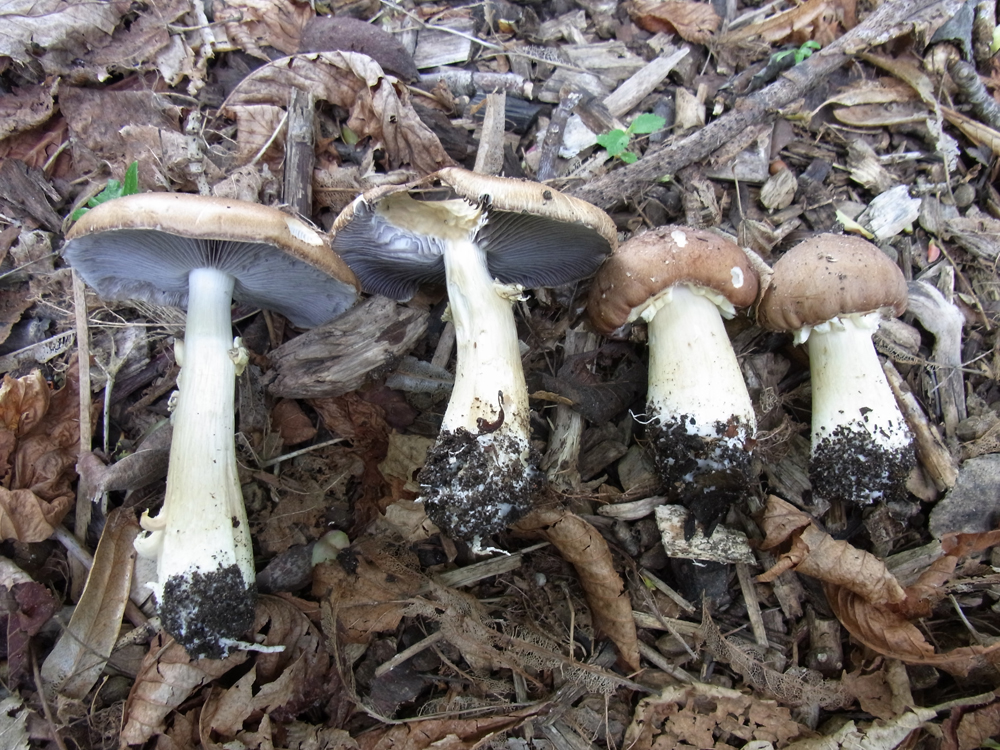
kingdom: Fungi
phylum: Basidiomycota
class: Agaricomycetes
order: Agaricales
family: Strophariaceae
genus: Stropharia
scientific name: Stropharia rugosoannulata
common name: Wine roundhead
